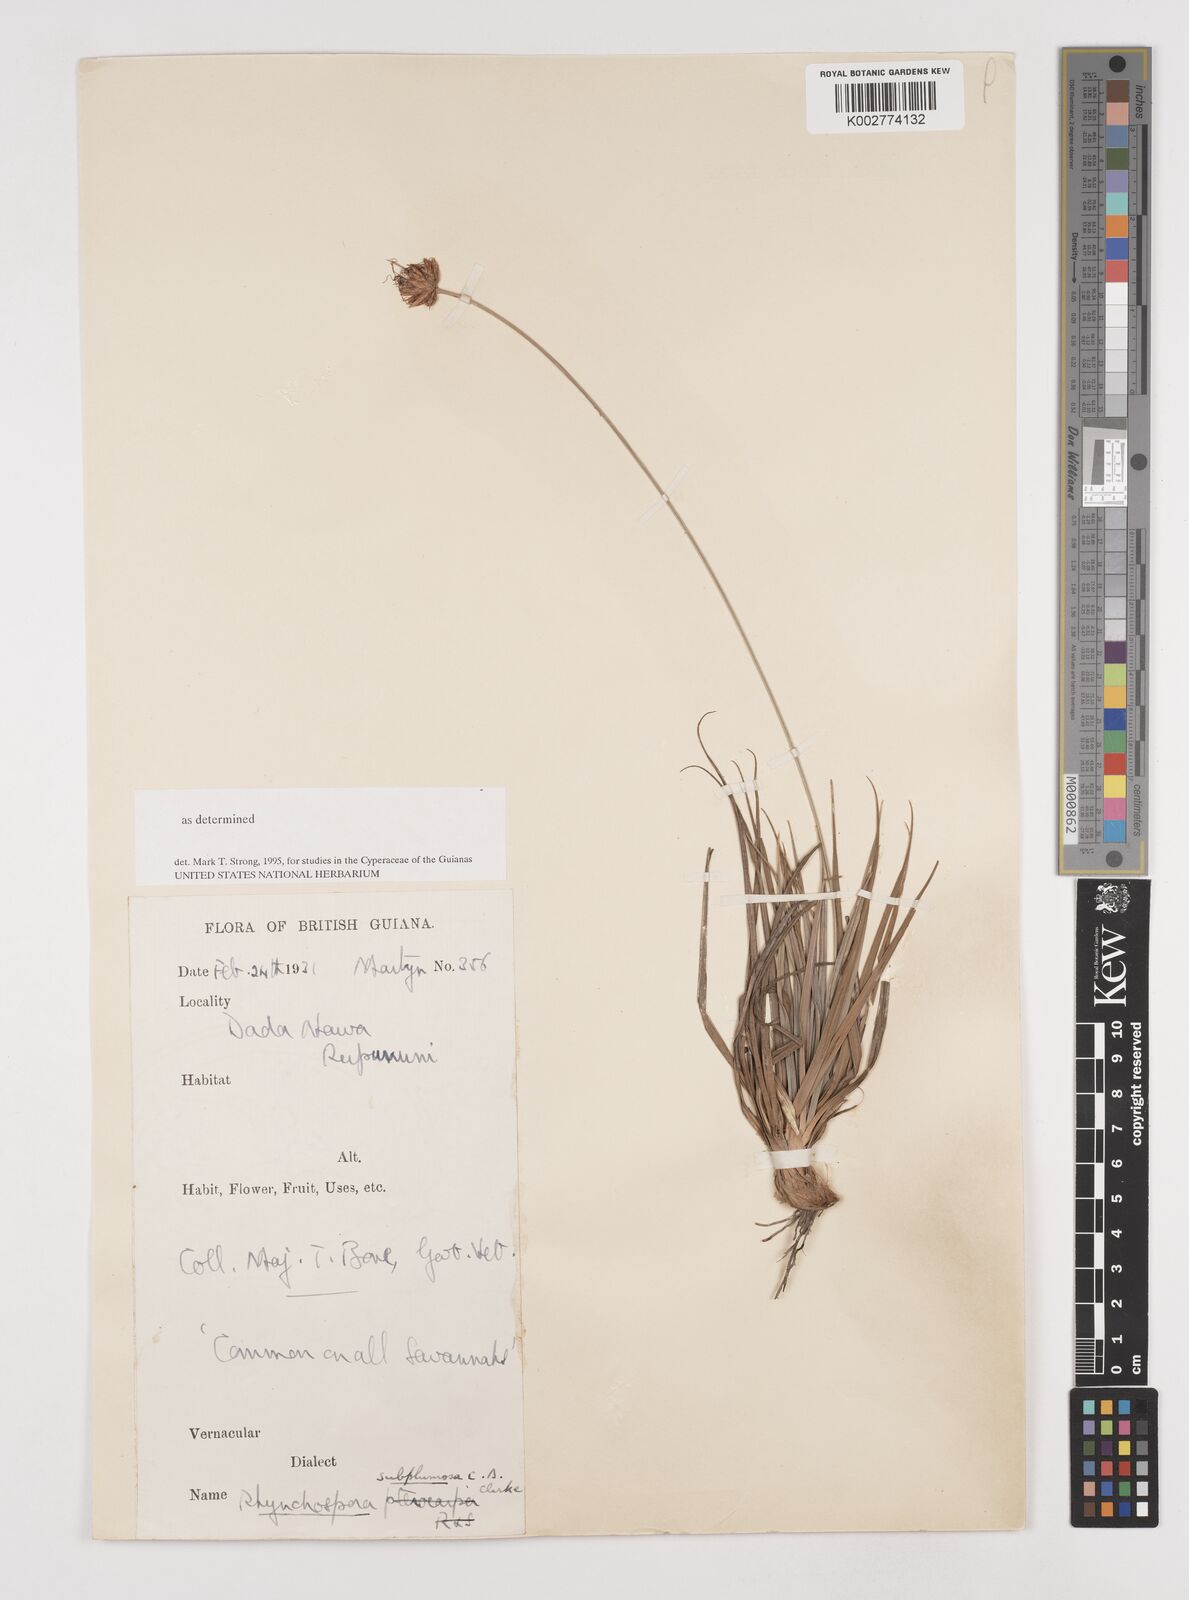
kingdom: Plantae
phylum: Tracheophyta
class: Liliopsida
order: Poales
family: Cyperaceae
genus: Rhynchospora
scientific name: Rhynchospora subplumosa
